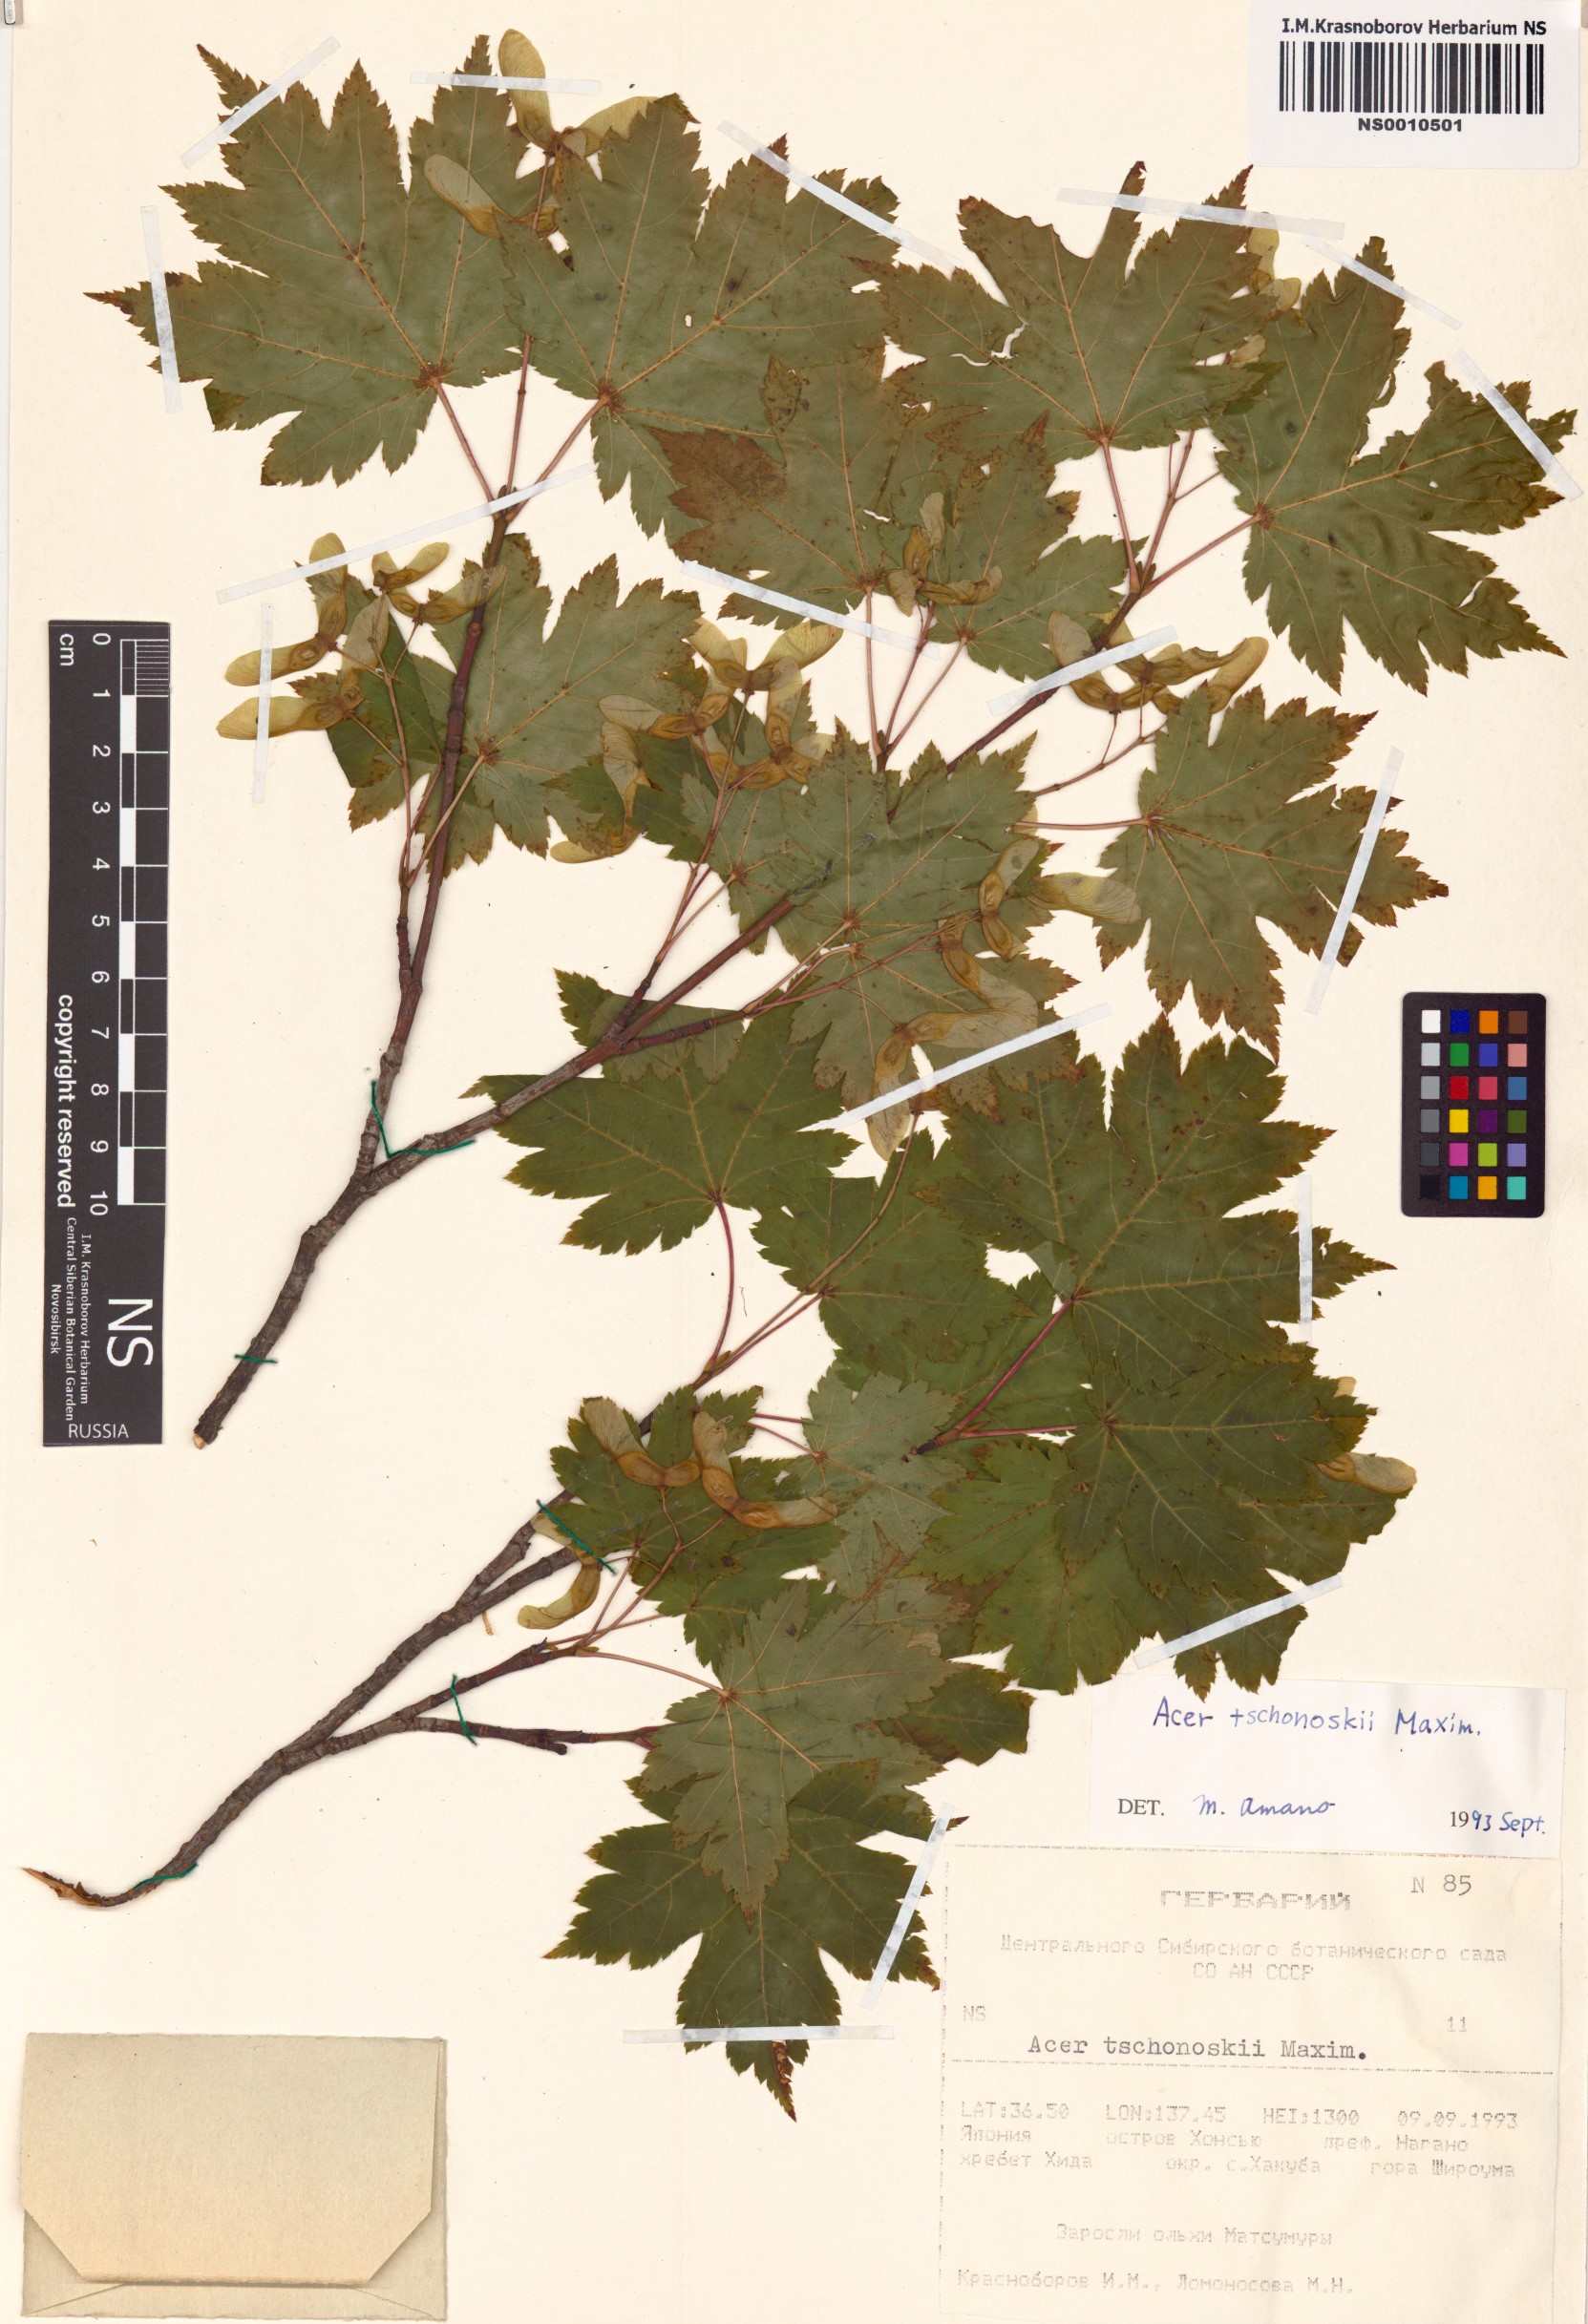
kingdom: Plantae
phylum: Tracheophyta
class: Magnoliopsida
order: Sapindales
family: Sapindaceae
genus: Acer
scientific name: Acer tschonoskii
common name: Tschonoski’s maple
